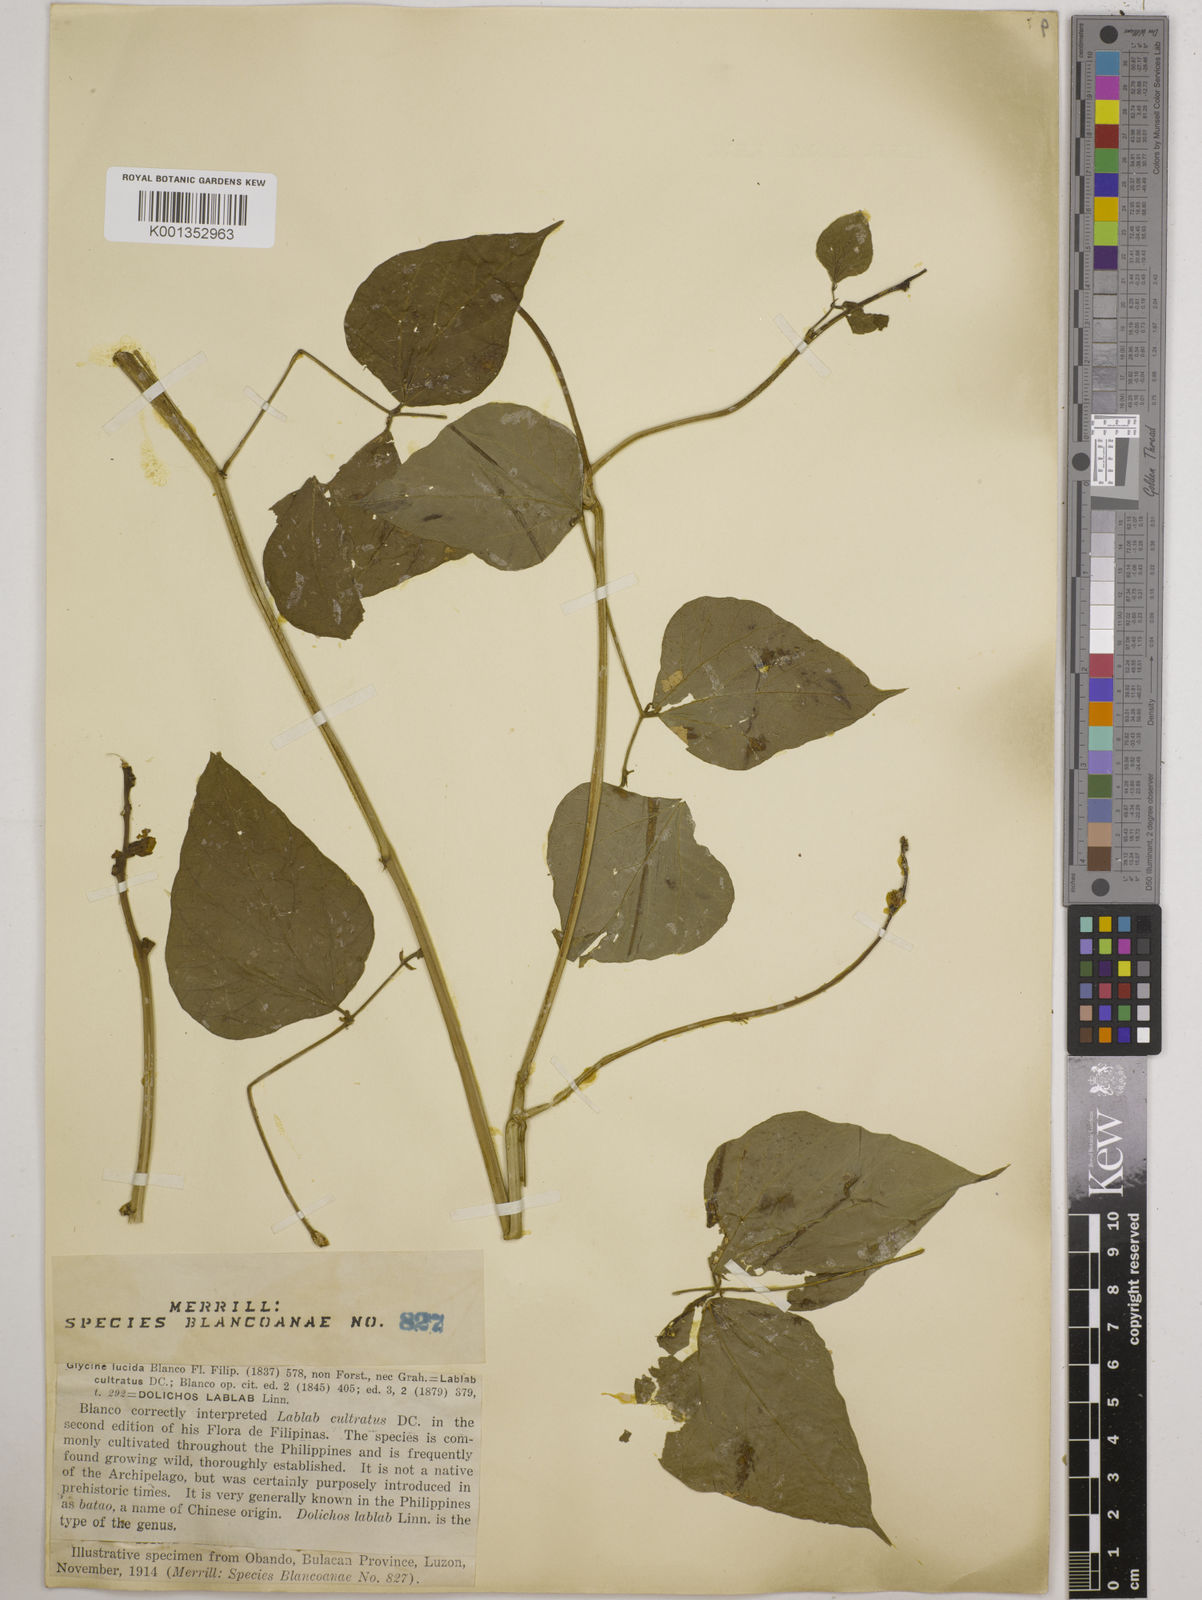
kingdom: Plantae
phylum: Tracheophyta
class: Magnoliopsida
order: Fabales
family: Fabaceae
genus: Lablab
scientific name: Lablab purpureus
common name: Lablab-bean
